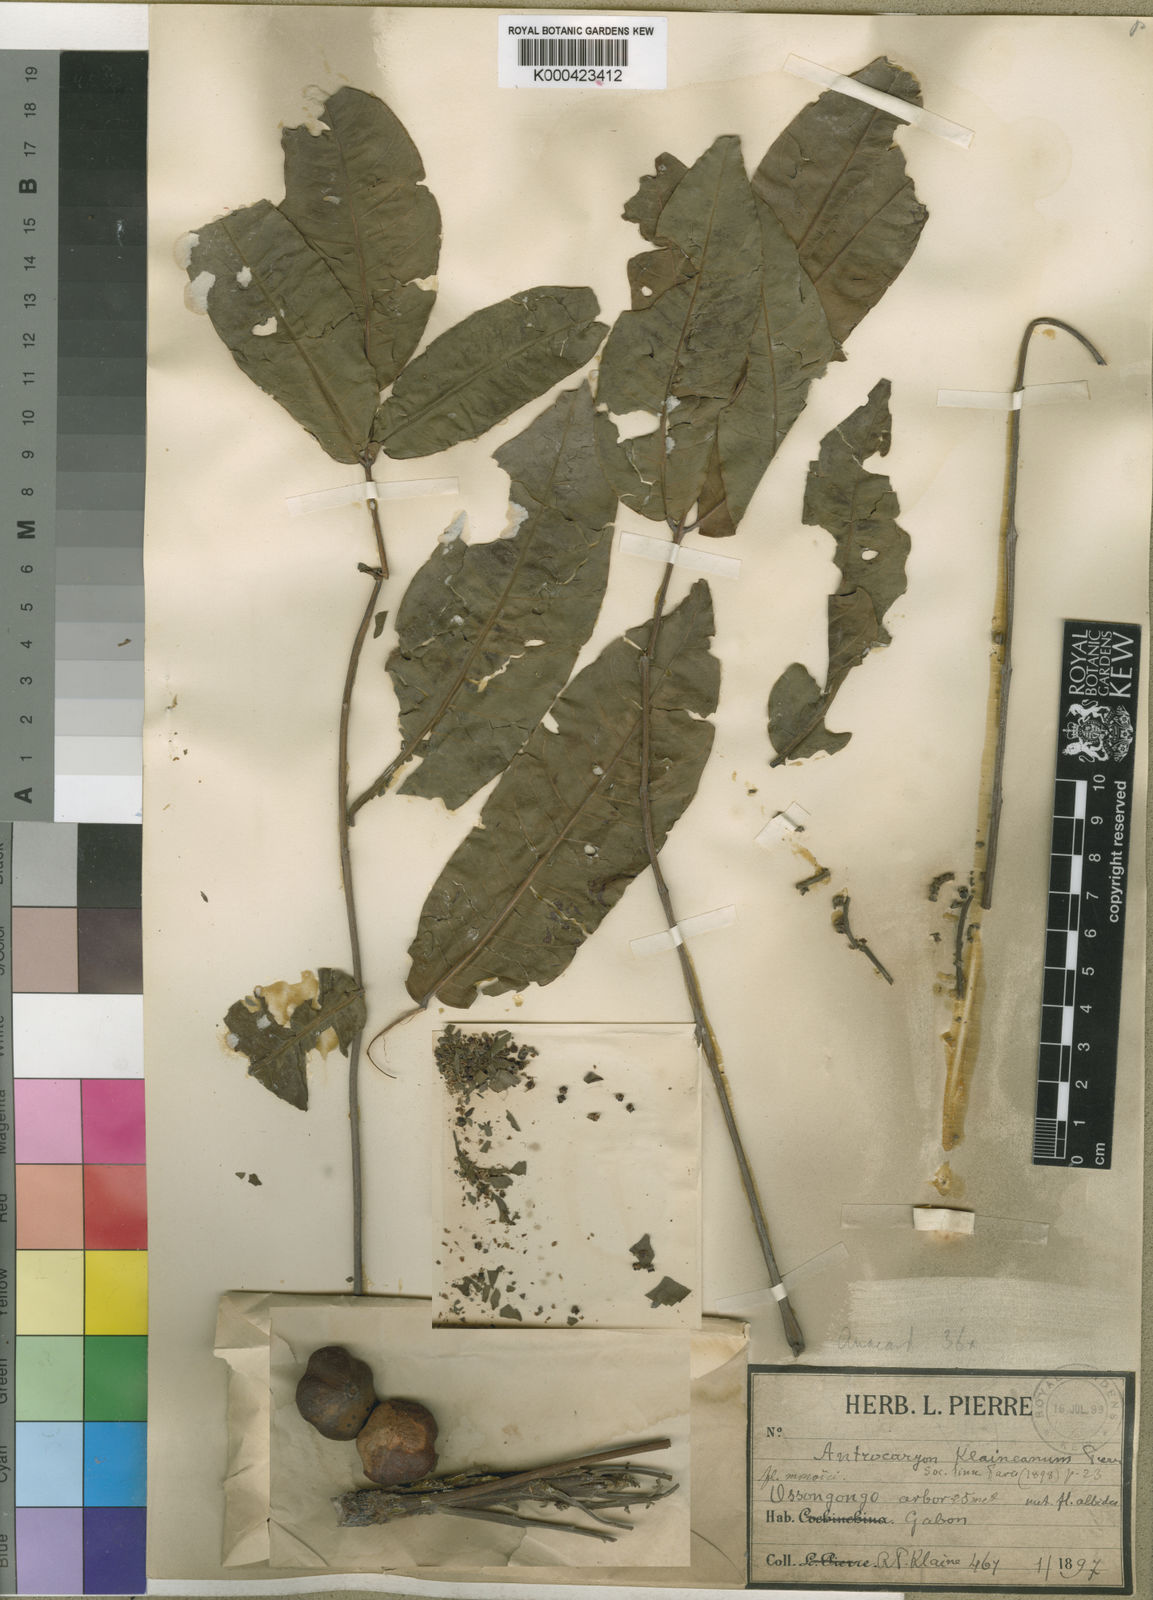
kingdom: Plantae
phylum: Tracheophyta
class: Magnoliopsida
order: Sapindales
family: Anacardiaceae
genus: Antrocaryon
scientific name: Antrocaryon klaineanum
